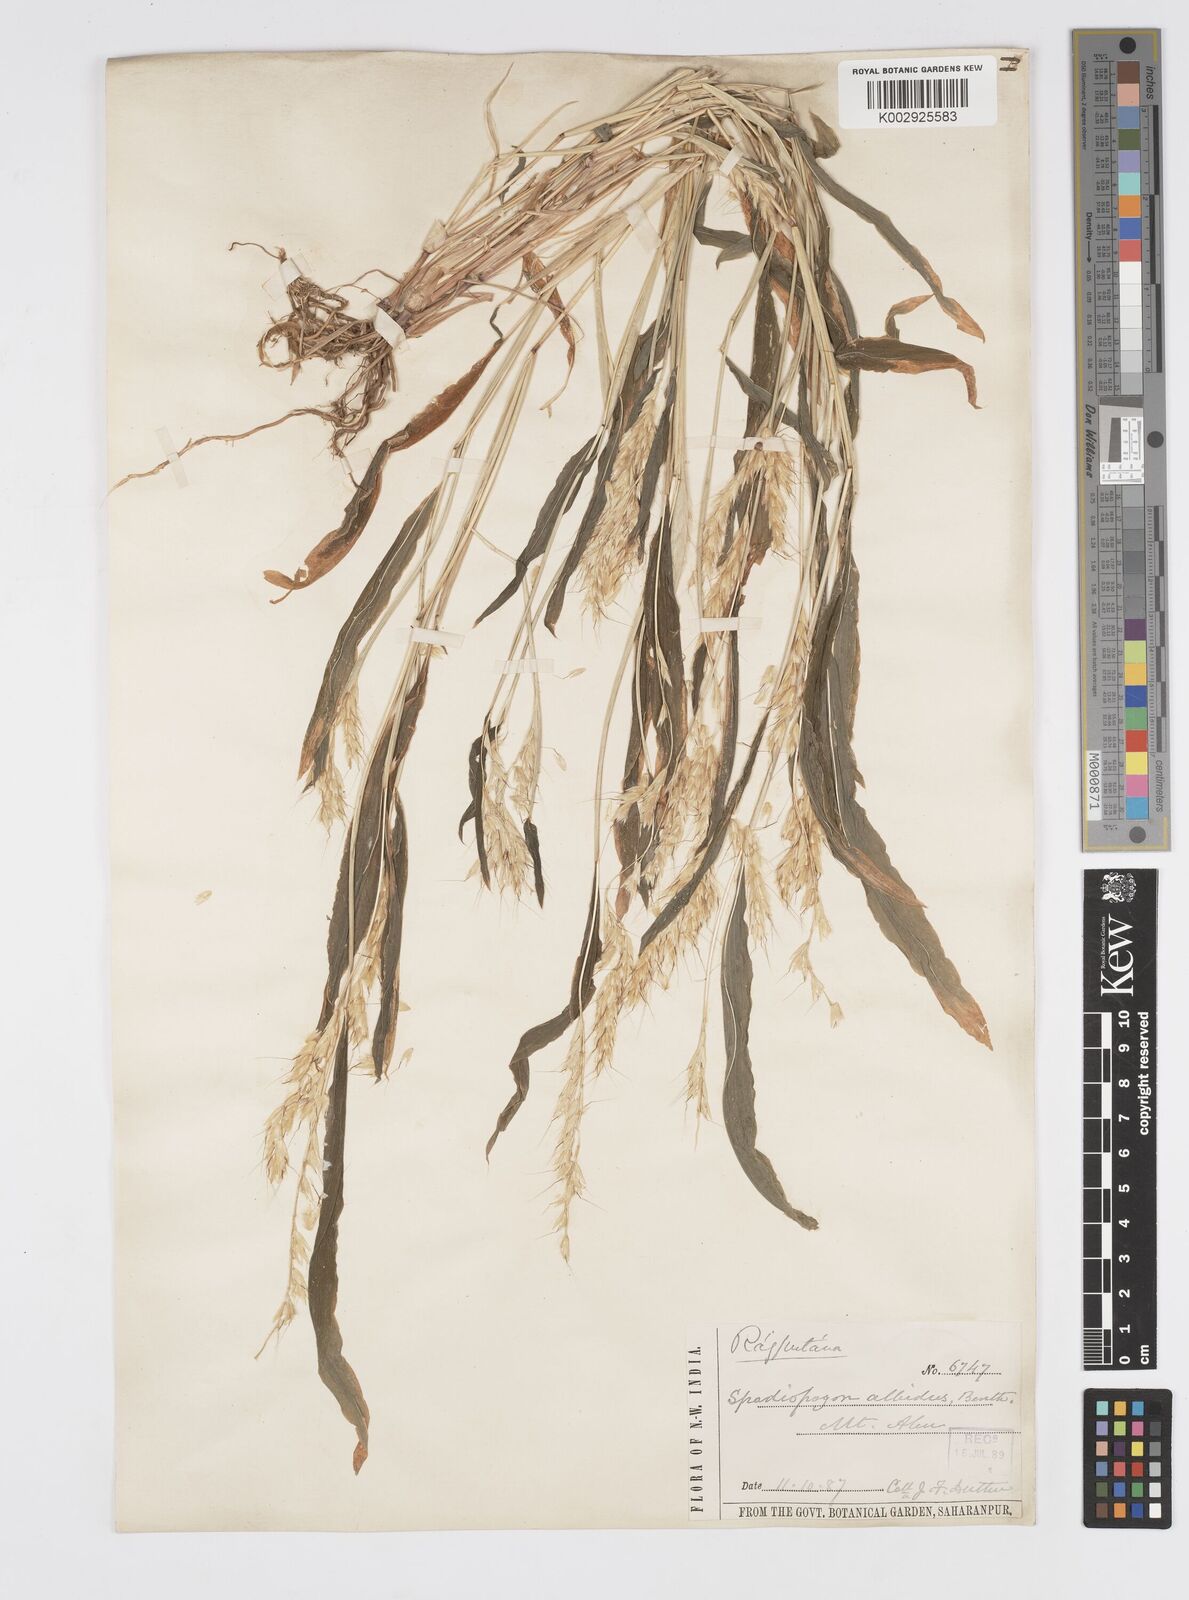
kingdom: Plantae
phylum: Tracheophyta
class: Liliopsida
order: Poales
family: Poaceae
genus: Spodiopogon
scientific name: Spodiopogon rhizophorus
